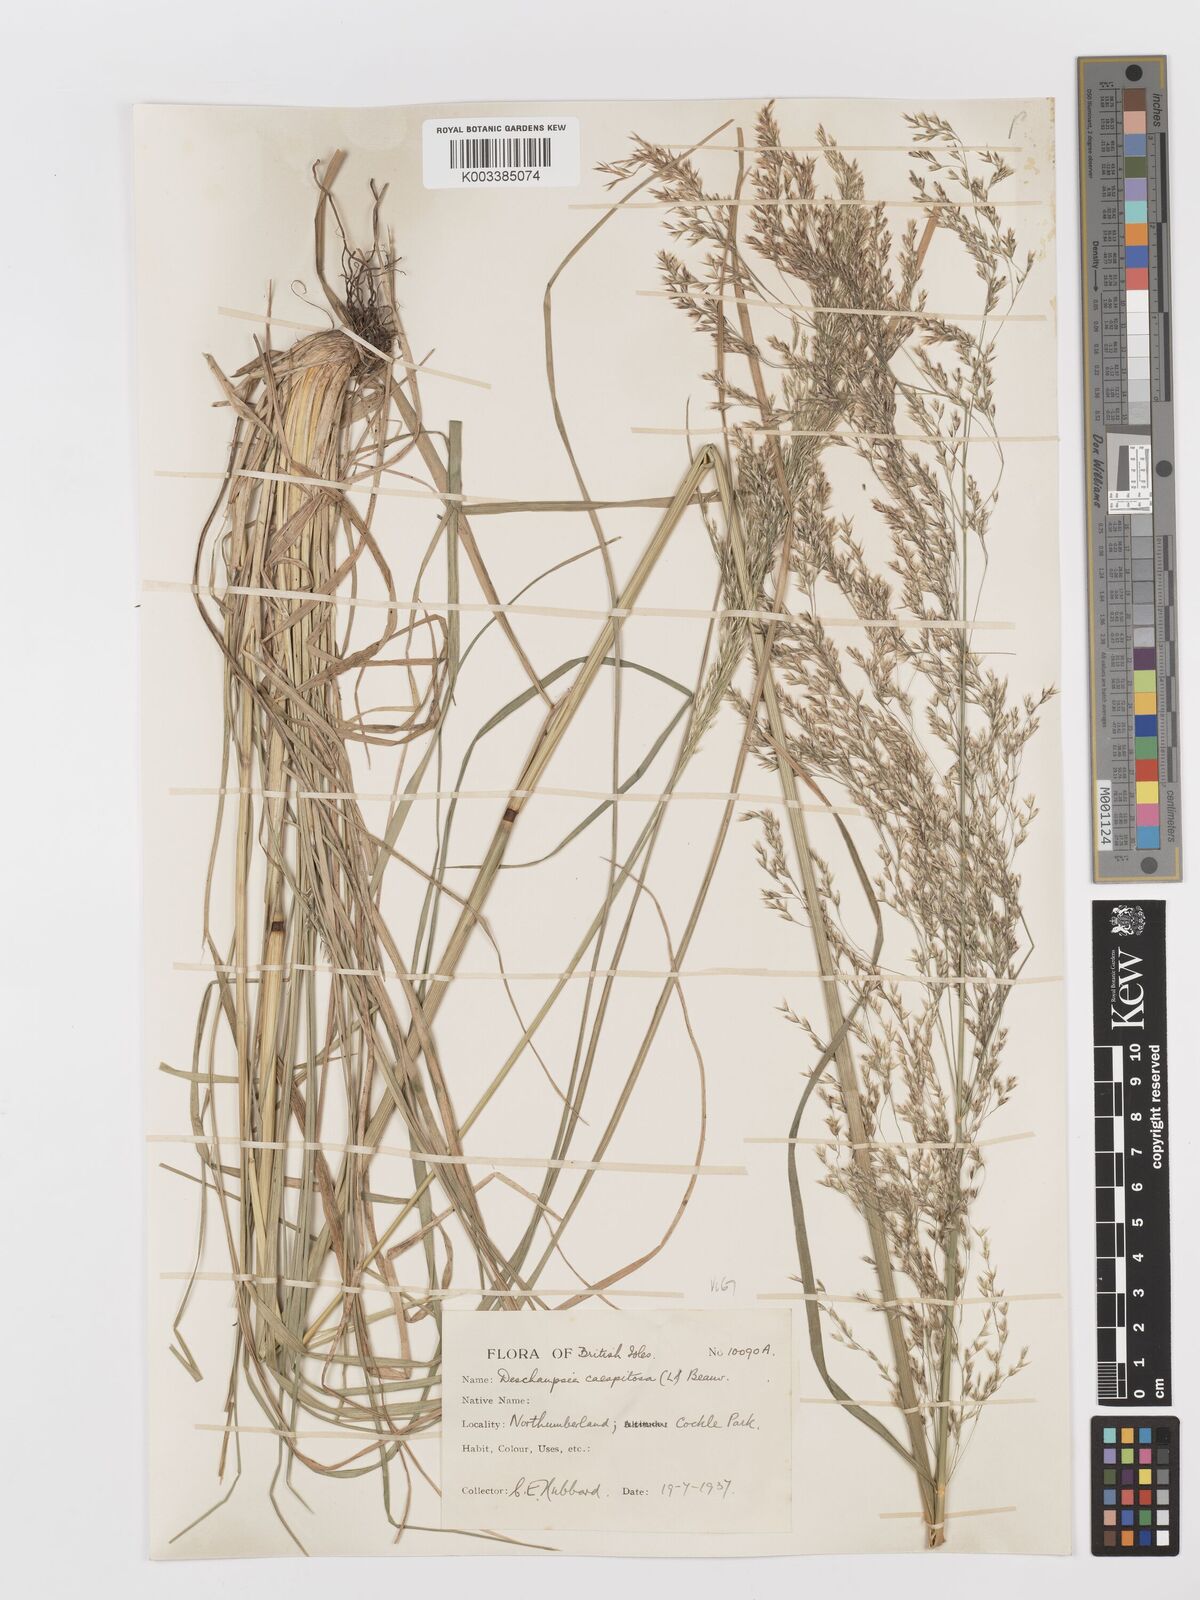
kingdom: Plantae
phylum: Tracheophyta
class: Liliopsida
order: Poales
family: Poaceae
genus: Deschampsia
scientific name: Deschampsia cespitosa
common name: Tufted hair-grass
